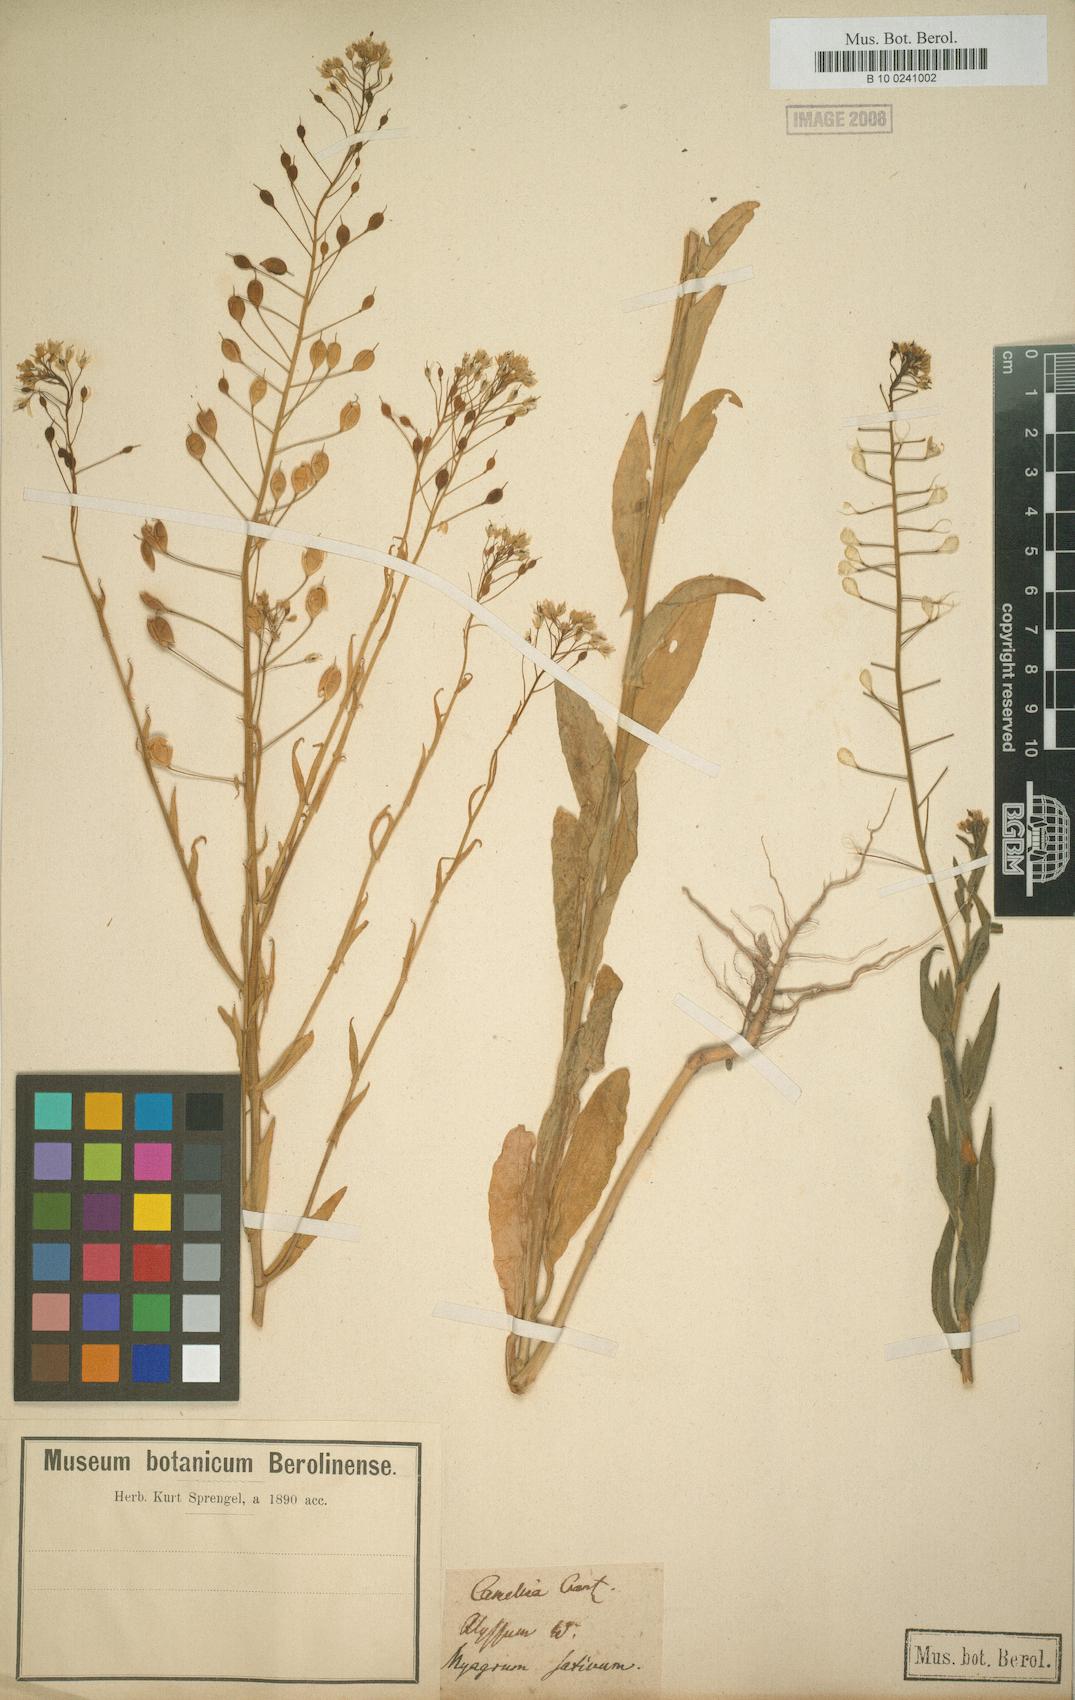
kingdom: Plantae
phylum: Tracheophyta
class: Magnoliopsida
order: Brassicales
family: Brassicaceae
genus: Camelina
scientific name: Camelina sativa
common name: Gold-of-pleasure
